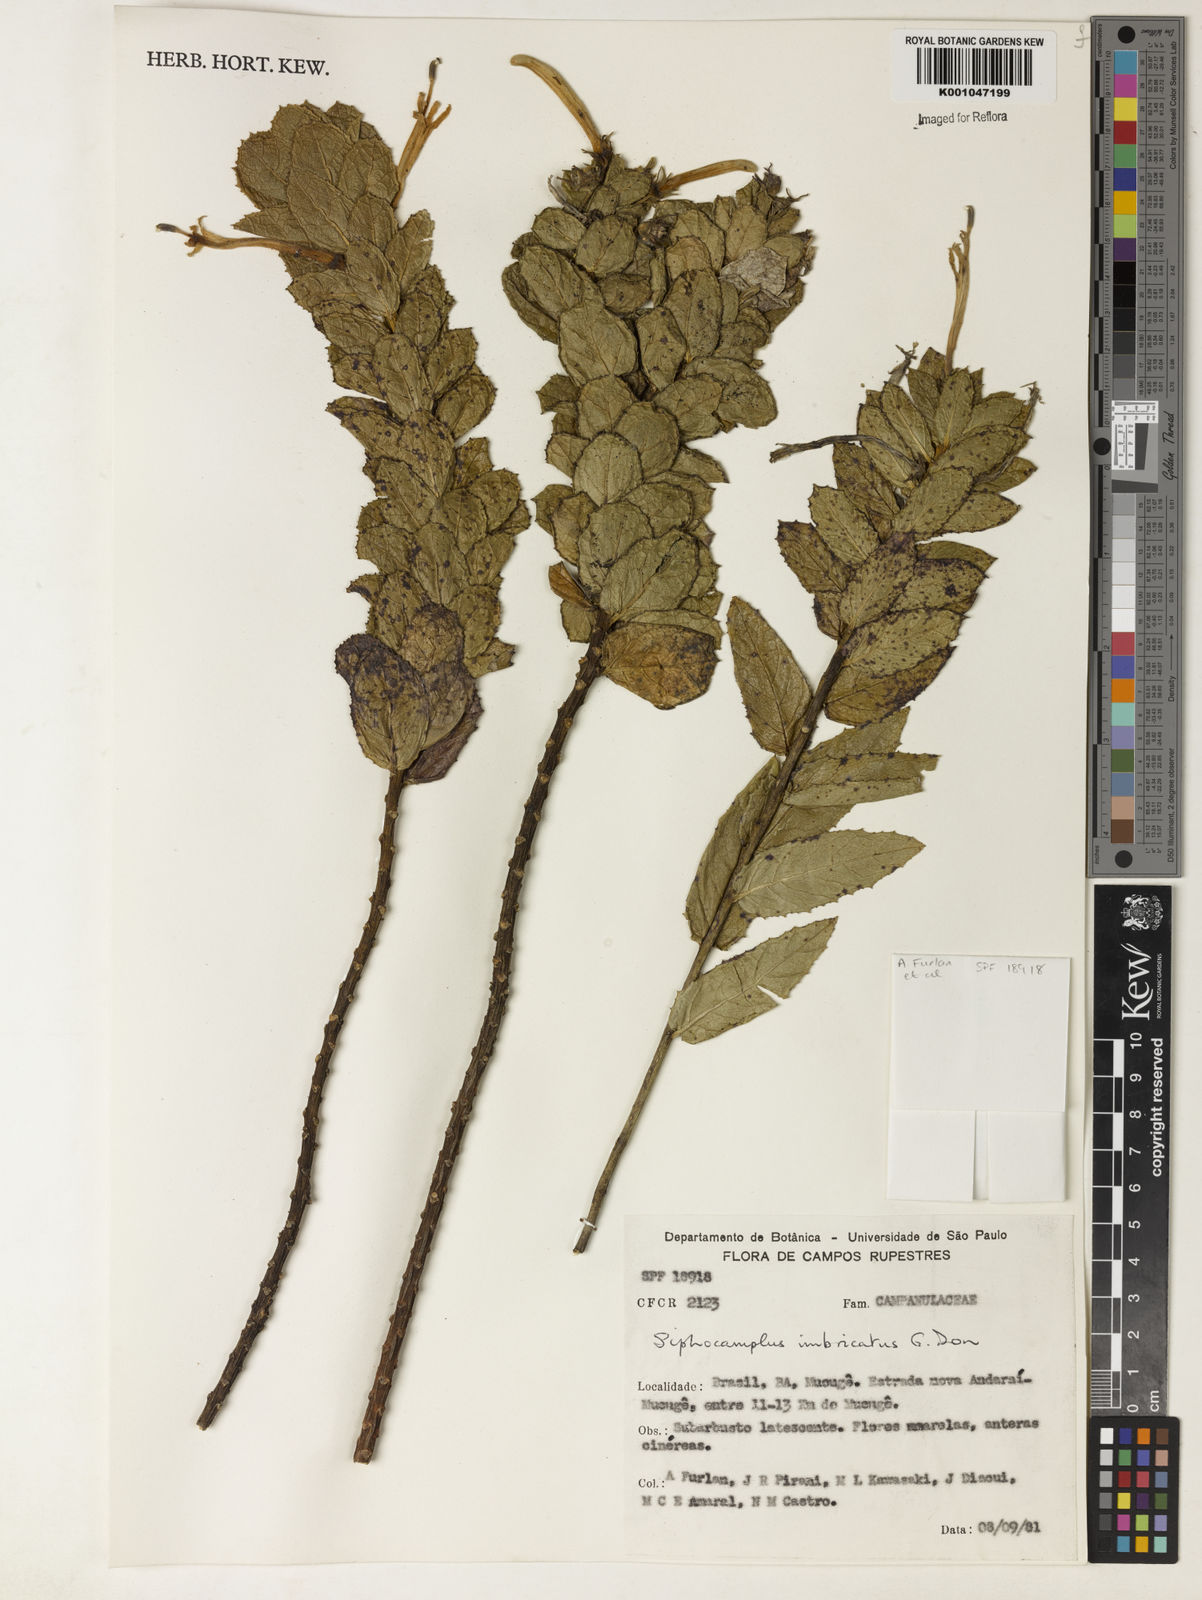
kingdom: Plantae
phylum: Tracheophyta
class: Magnoliopsida
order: Asterales
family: Campanulaceae
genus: Siphocampylus
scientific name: Siphocampylus imbricatus
